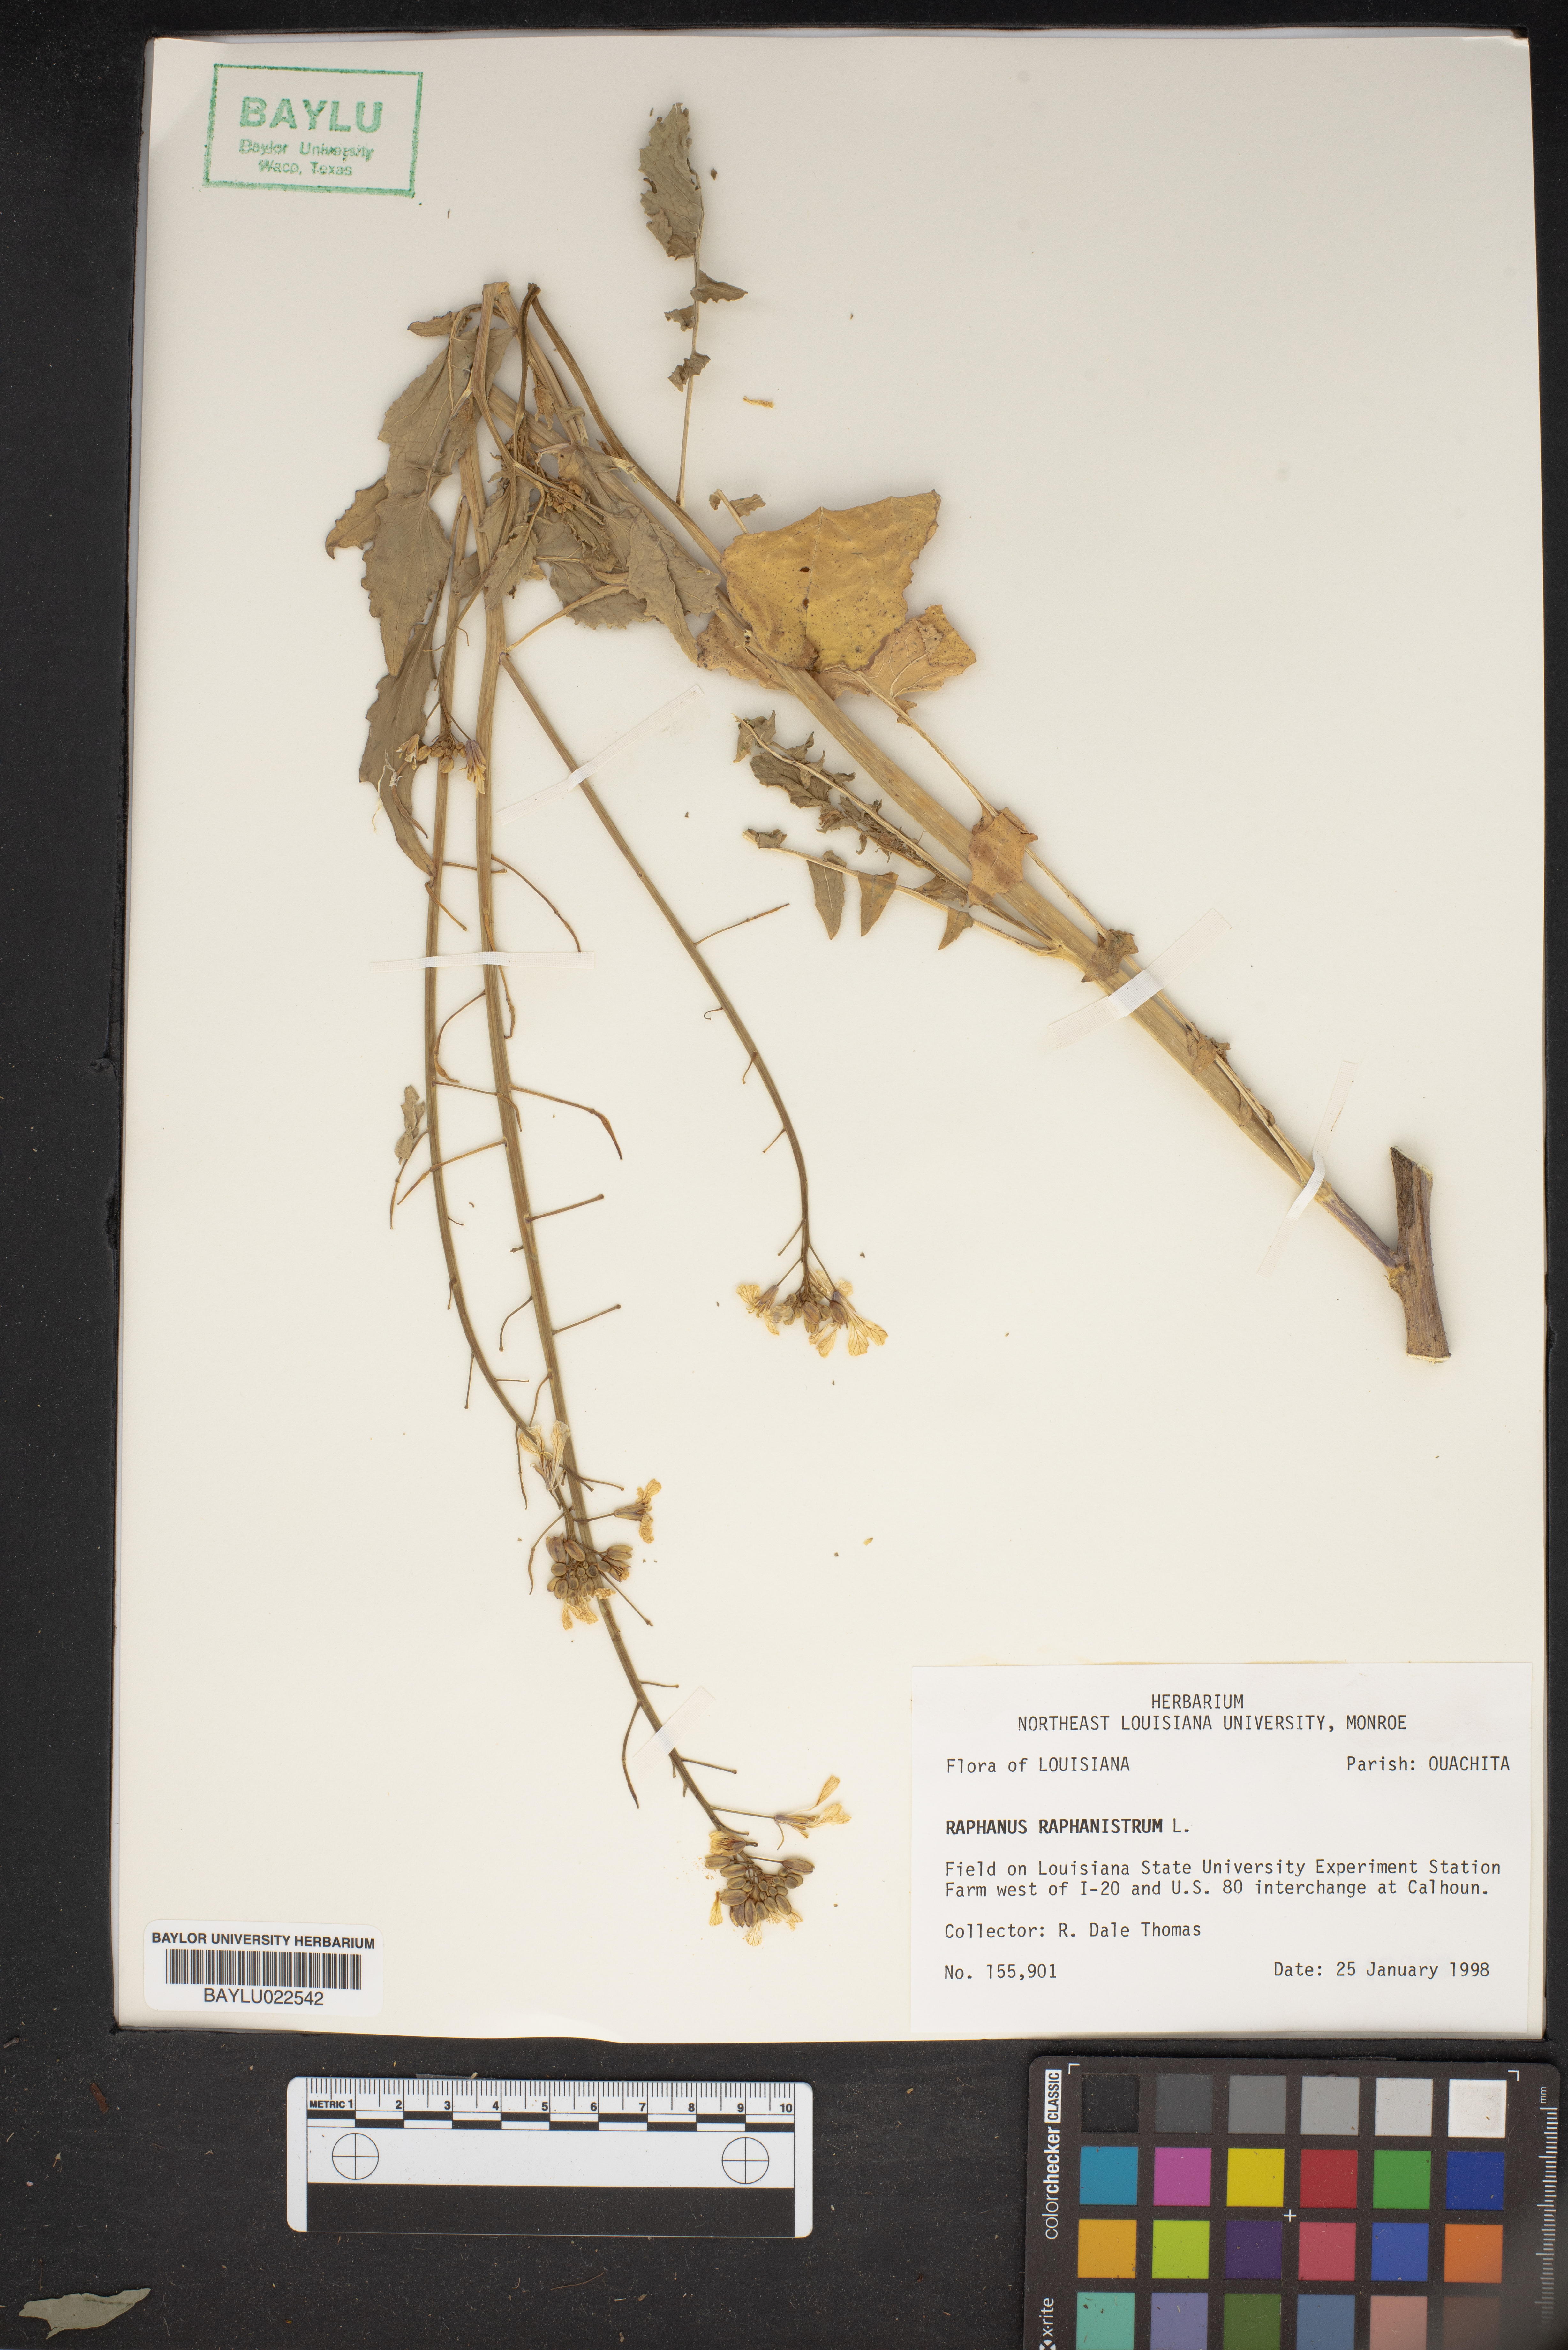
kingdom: Plantae
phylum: Tracheophyta
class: Magnoliopsida
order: Brassicales
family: Brassicaceae
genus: Raphanus
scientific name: Raphanus raphanistrum
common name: Wild radish
